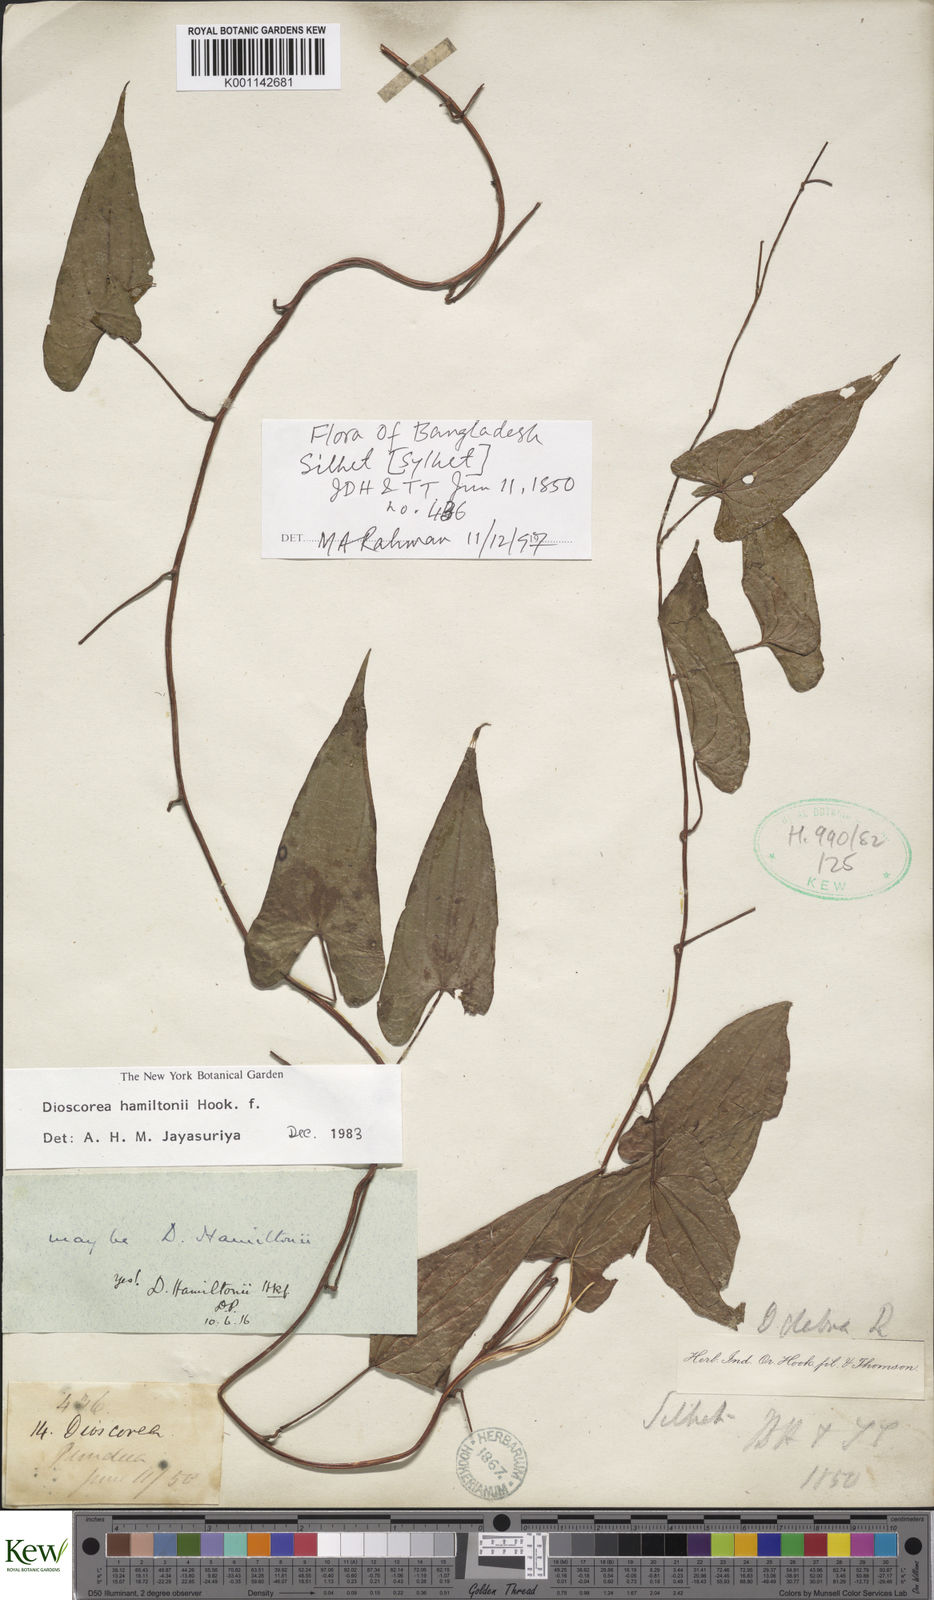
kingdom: Plantae
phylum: Tracheophyta
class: Liliopsida
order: Dioscoreales
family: Dioscoreaceae
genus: Dioscorea
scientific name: Dioscorea hamiltonii
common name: Mountain yam
